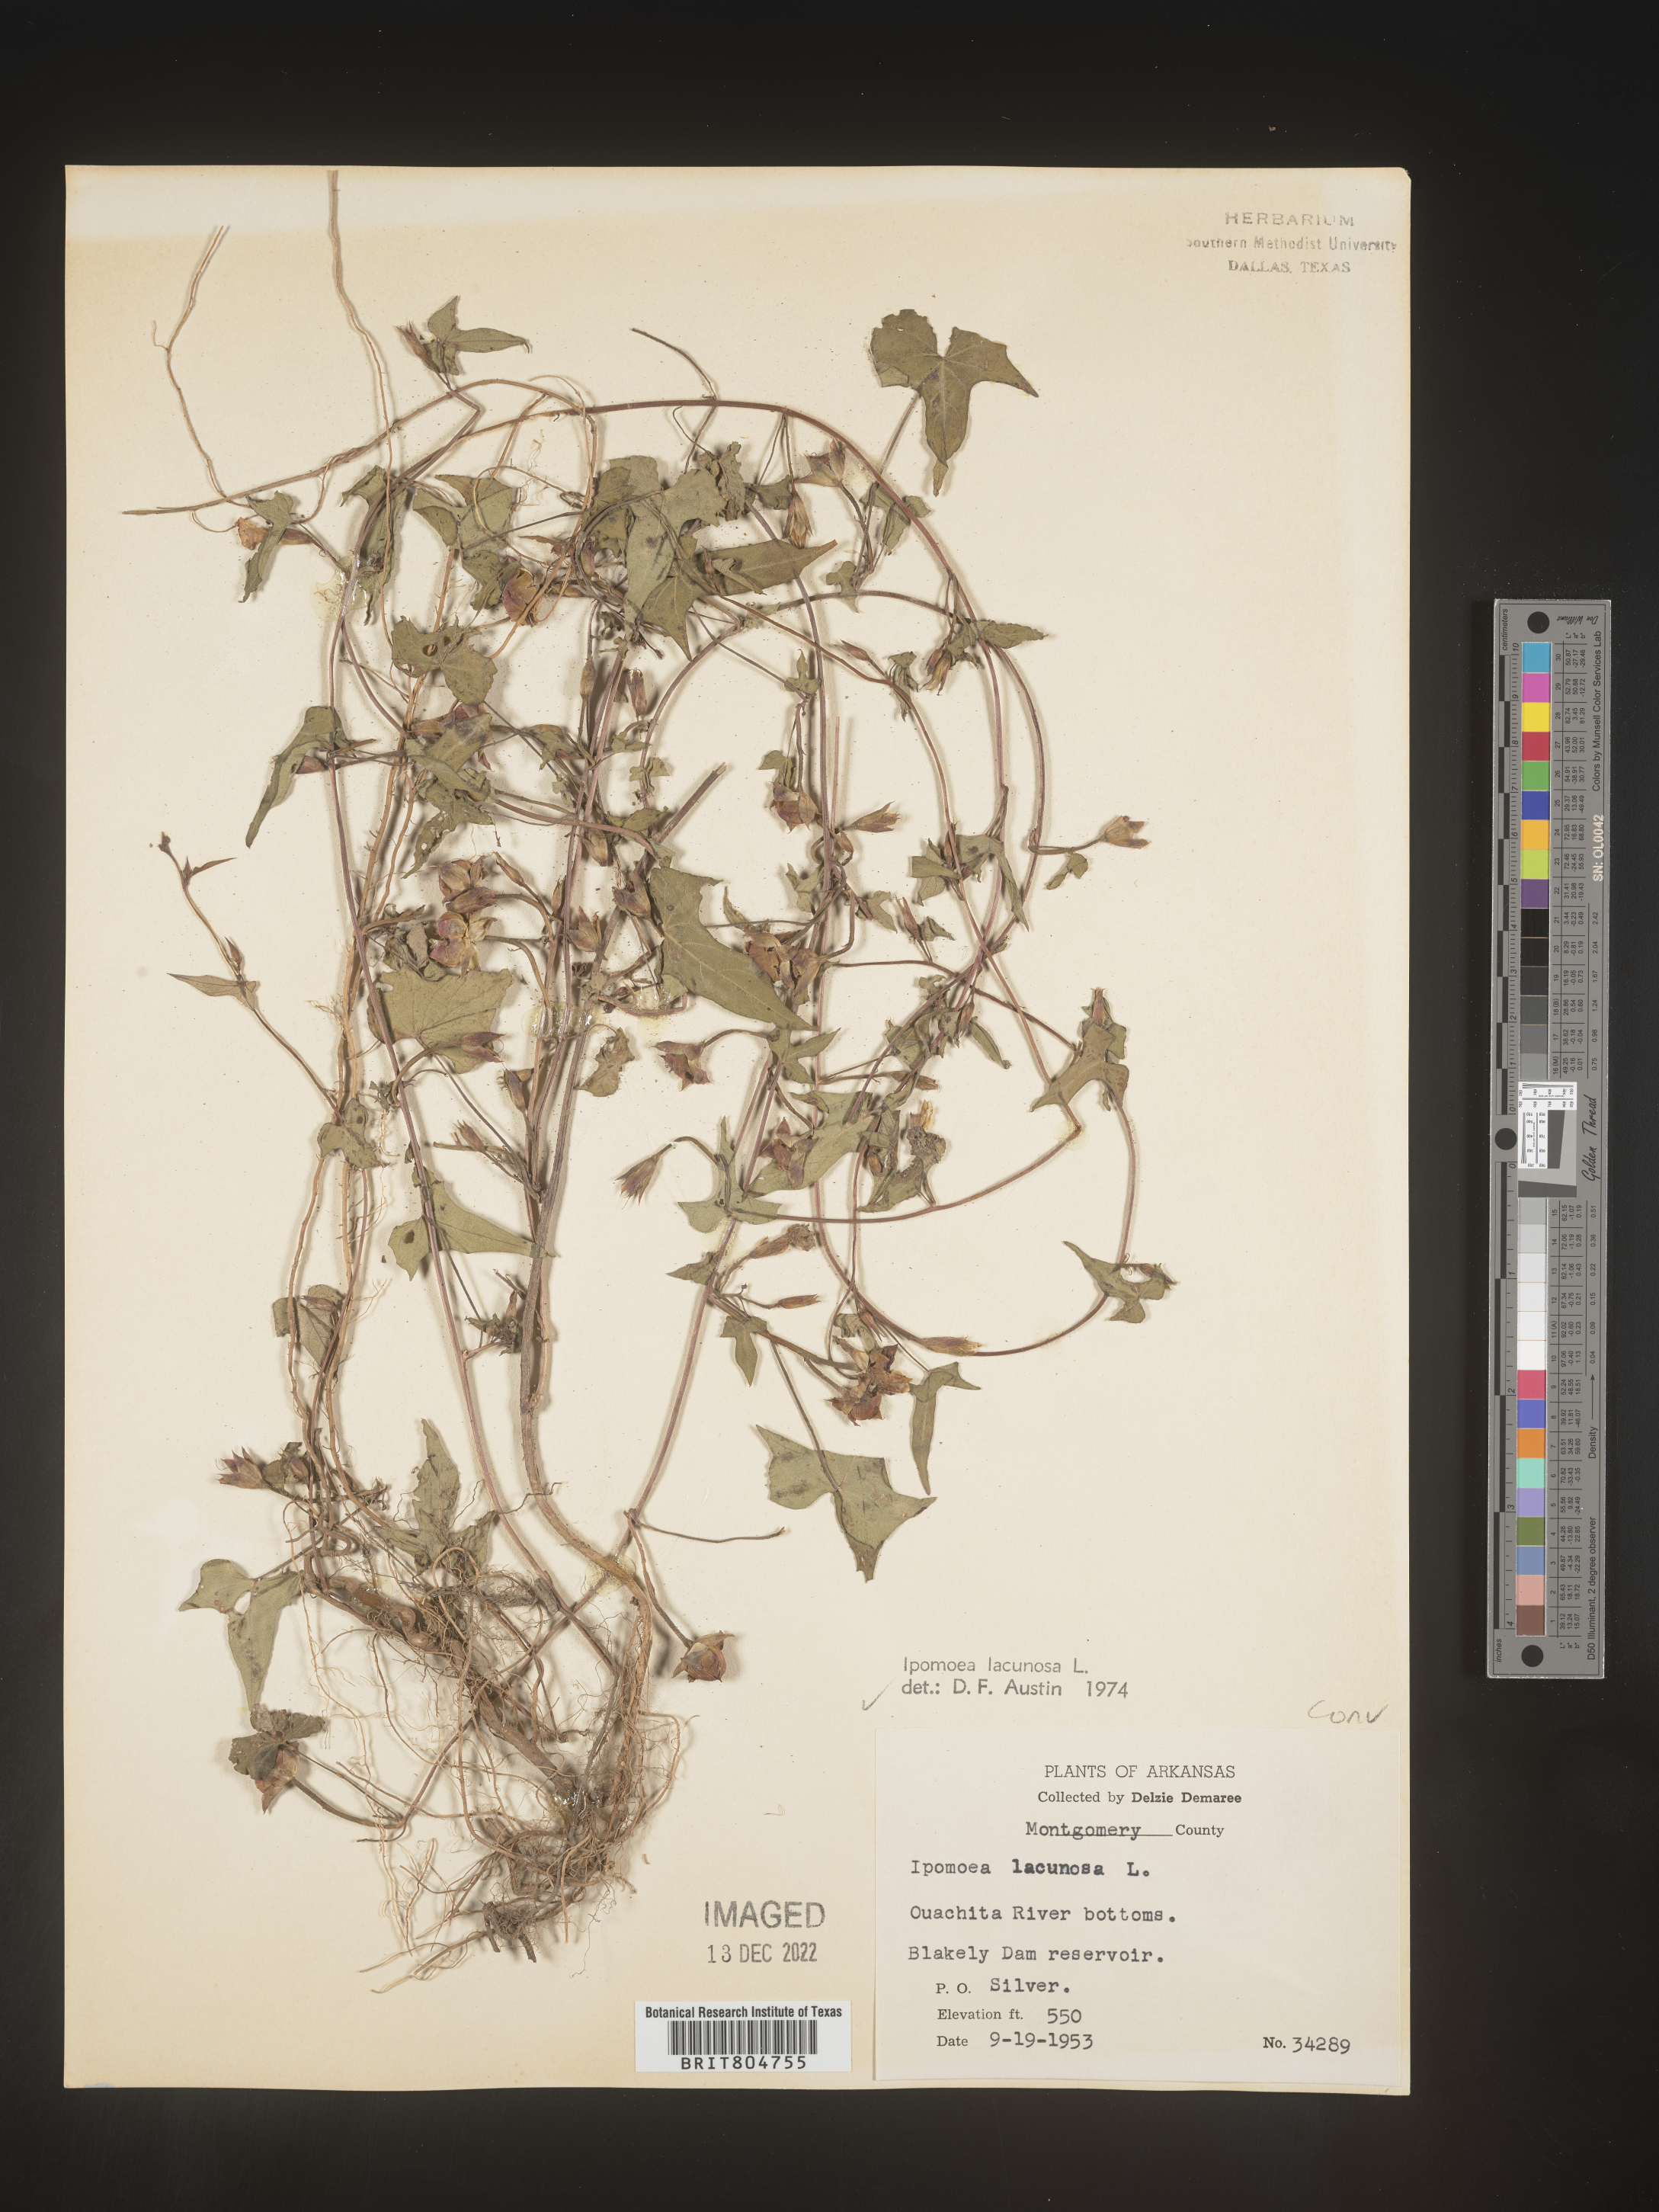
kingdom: Plantae
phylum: Tracheophyta
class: Magnoliopsida
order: Solanales
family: Convolvulaceae
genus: Ipomoea
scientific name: Ipomoea lacunosa
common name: White morning-glory
